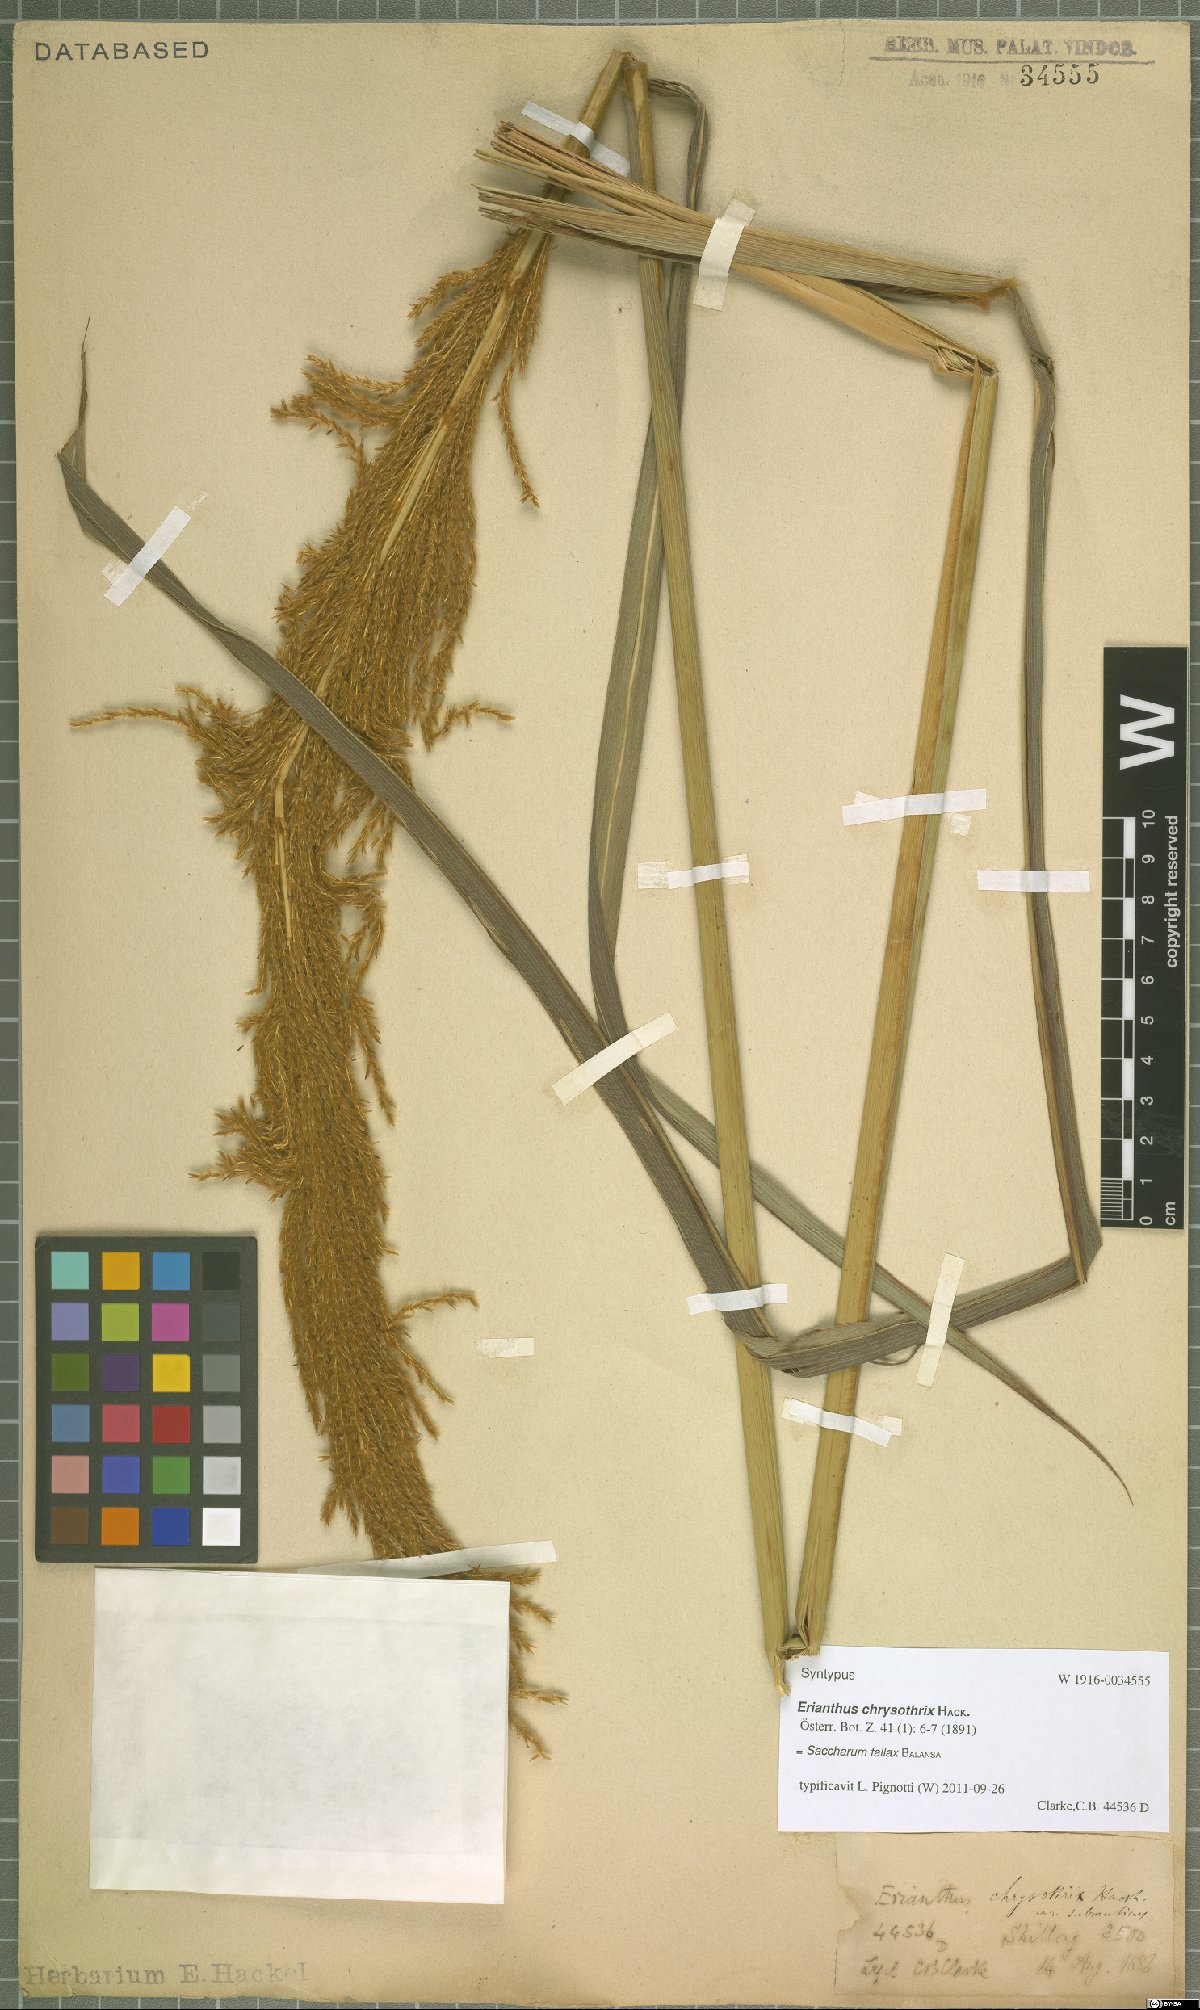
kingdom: Plantae
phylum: Tracheophyta
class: Liliopsida
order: Poales
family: Poaceae
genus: Narenga
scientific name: Narenga fallax
